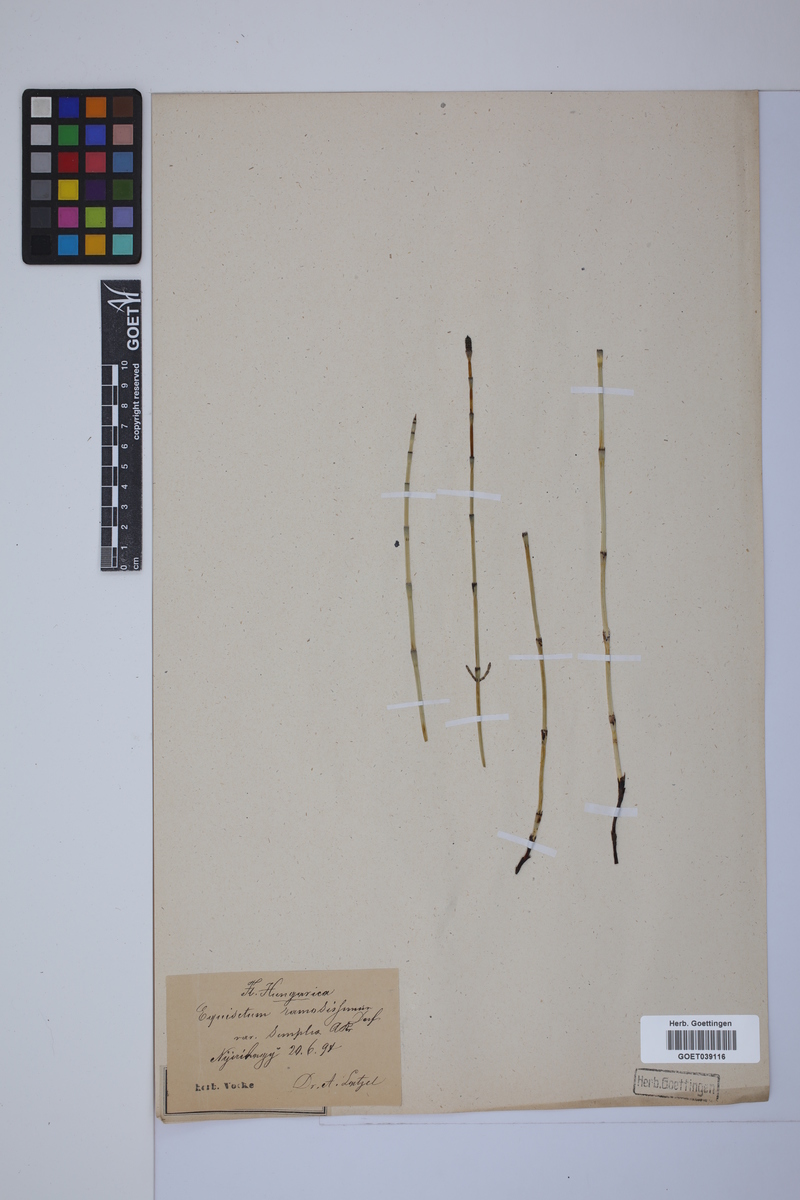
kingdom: Plantae
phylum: Tracheophyta
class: Polypodiopsida
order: Equisetales
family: Equisetaceae
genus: Equisetum
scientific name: Equisetum giganteum
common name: Giant horsetail
